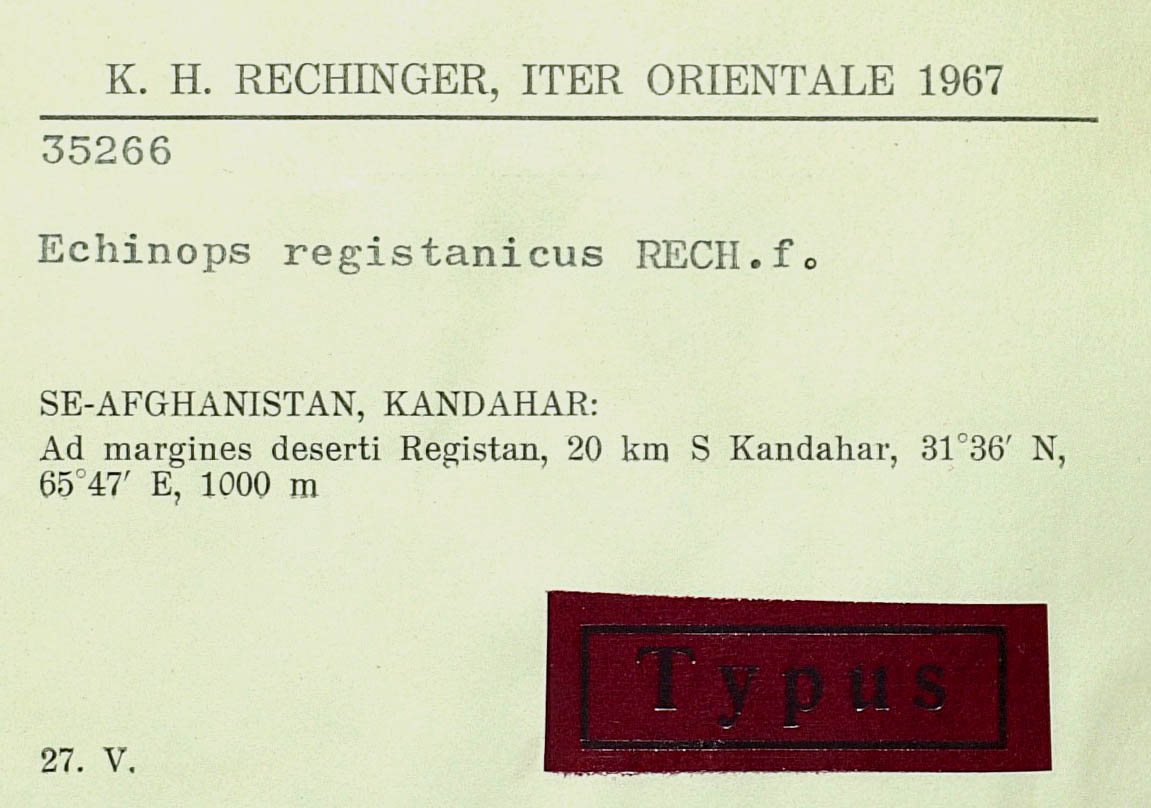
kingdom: Plantae
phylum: Tracheophyta
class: Magnoliopsida
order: Asterales
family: Asteraceae
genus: Echinops
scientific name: Echinops registanicus
